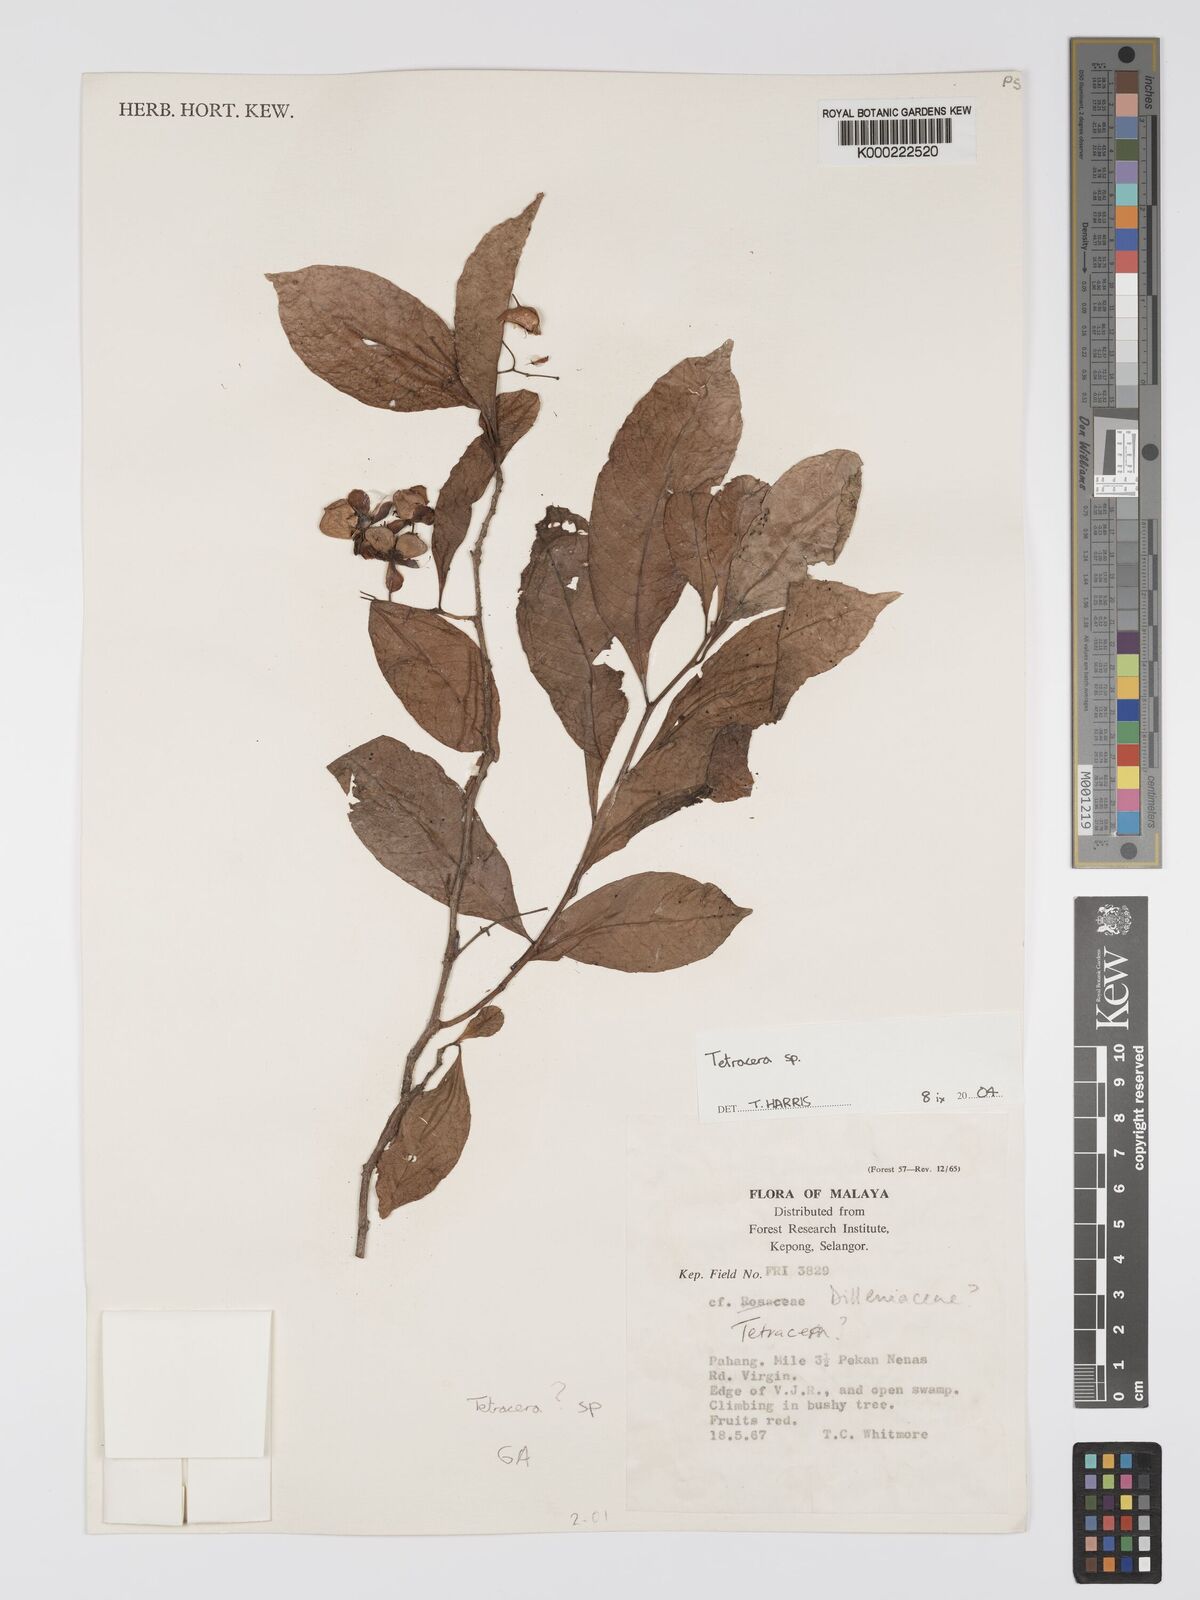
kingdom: Plantae
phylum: Tracheophyta
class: Magnoliopsida
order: Dilleniales
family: Dilleniaceae
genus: Tetracera
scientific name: Tetracera
